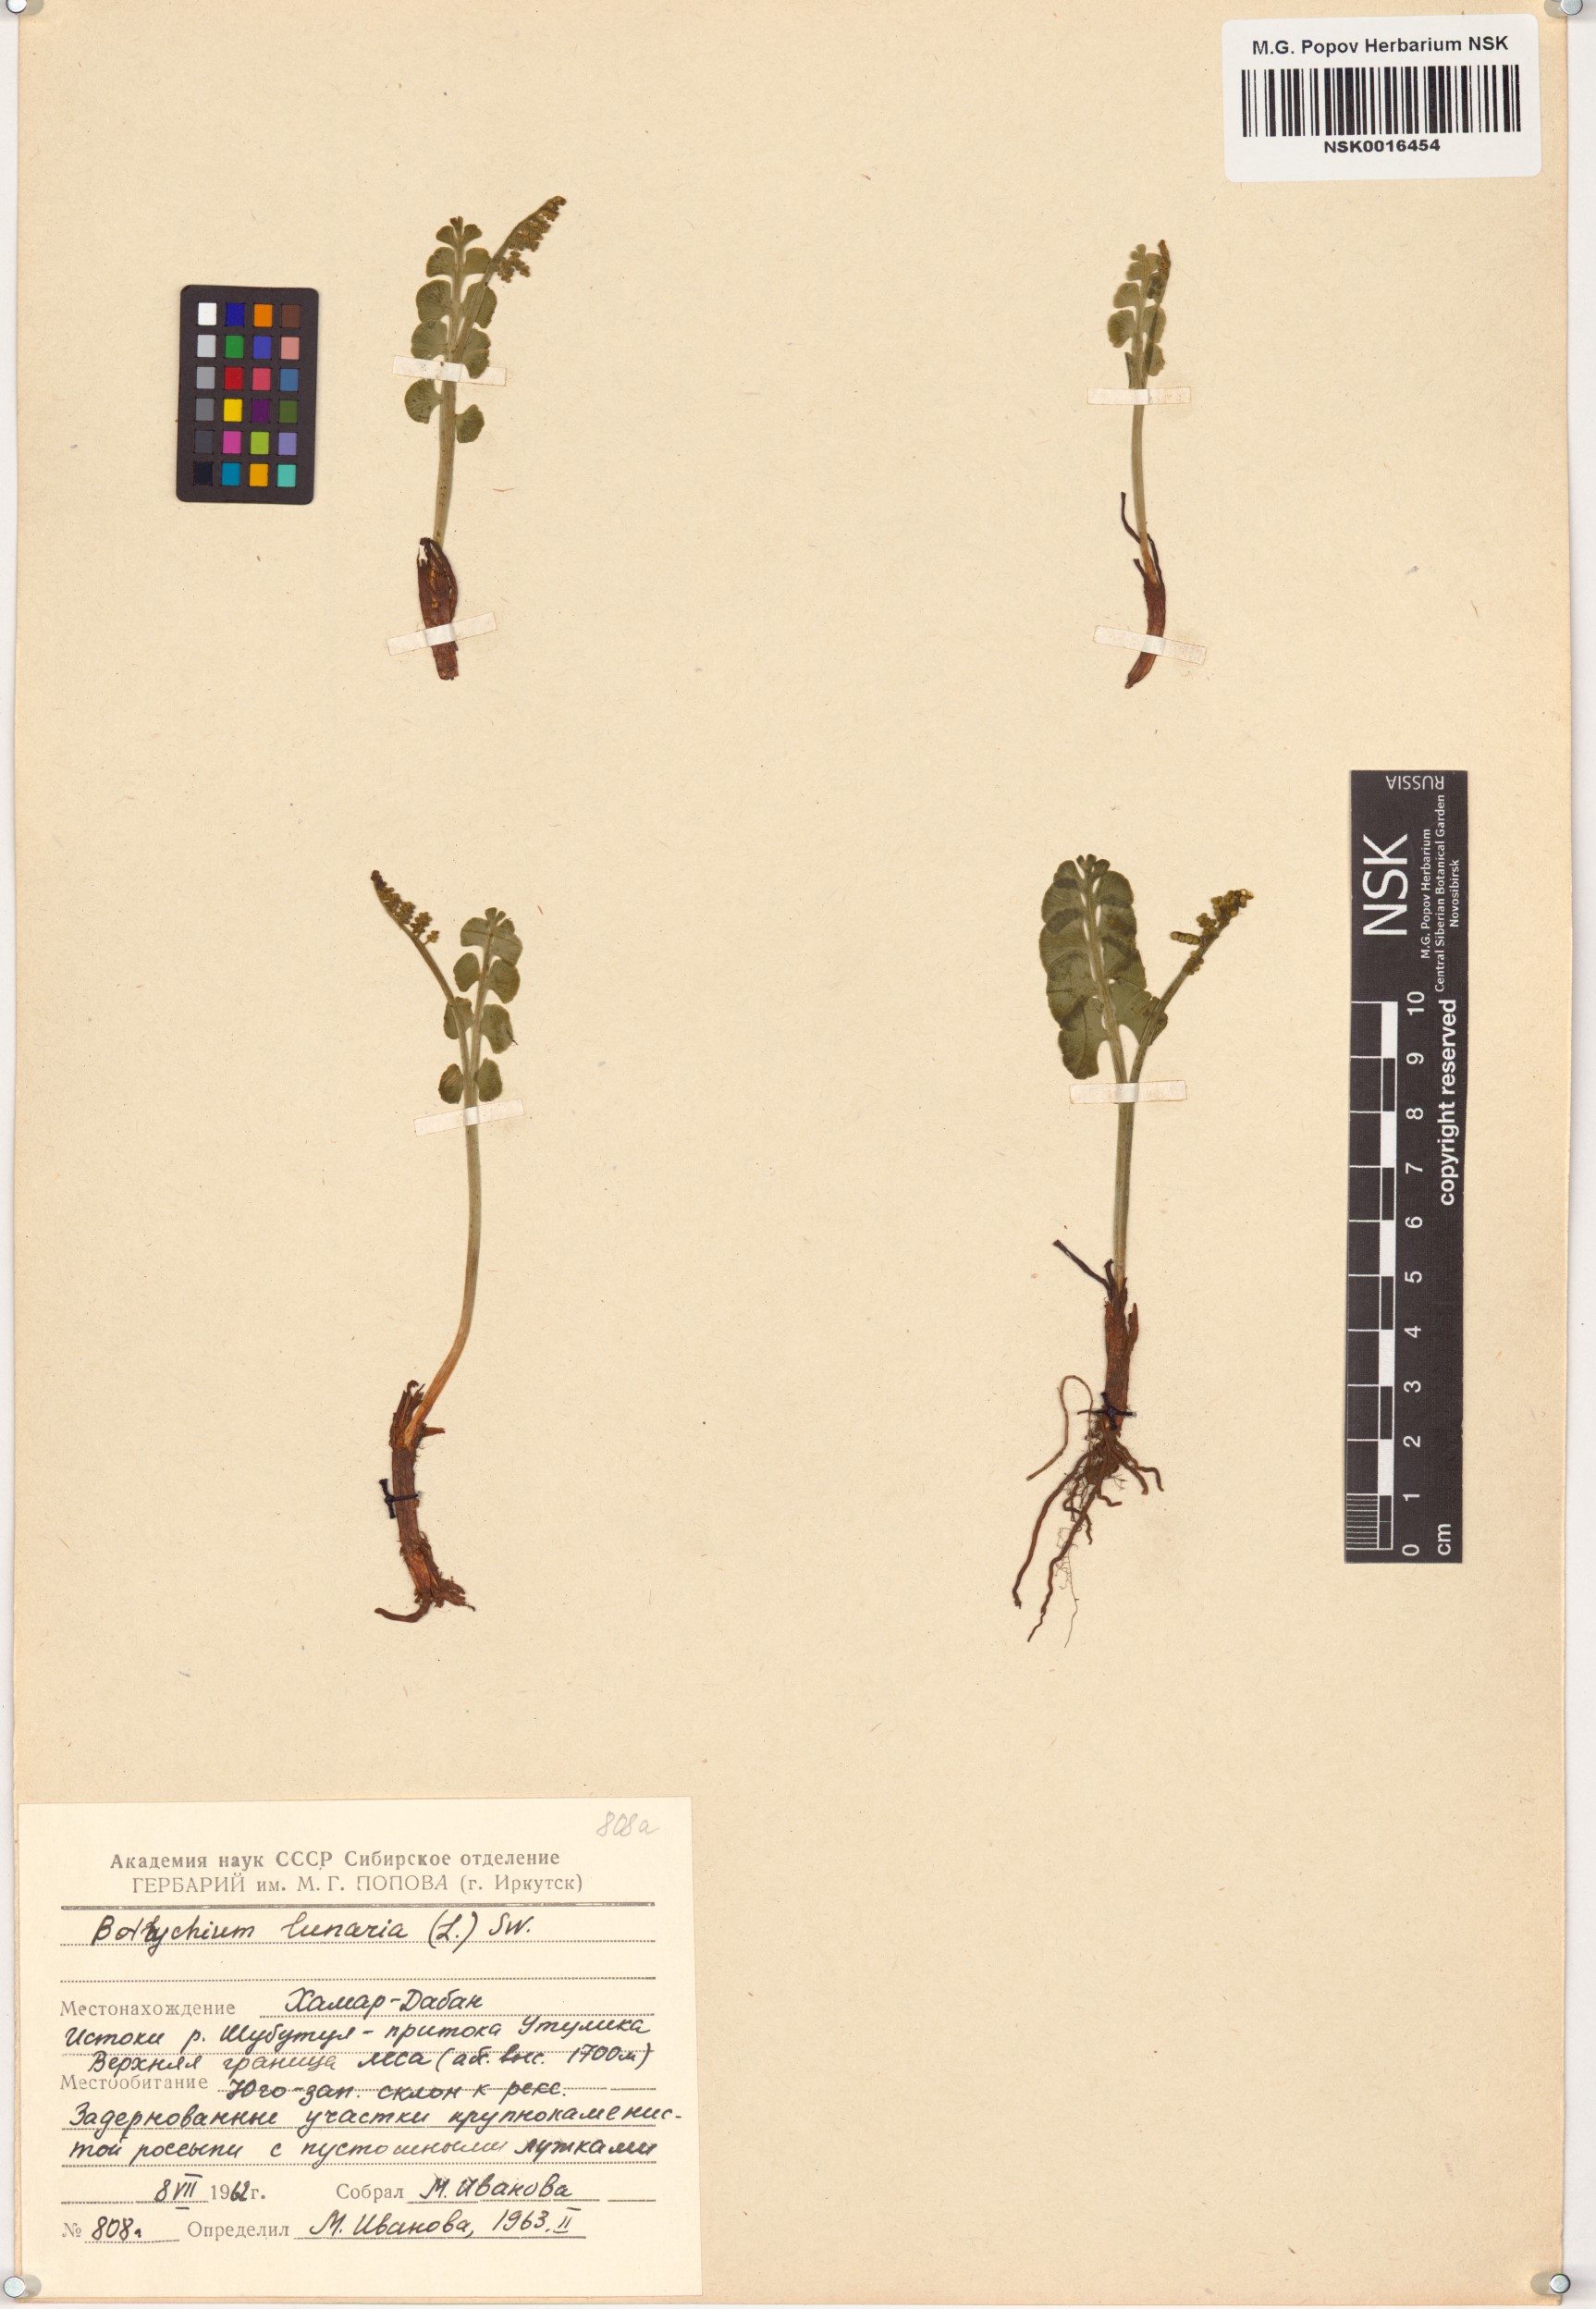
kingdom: Plantae
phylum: Tracheophyta
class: Polypodiopsida
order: Ophioglossales
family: Ophioglossaceae
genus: Botrychium
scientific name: Botrychium lunaria
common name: Moonwort
